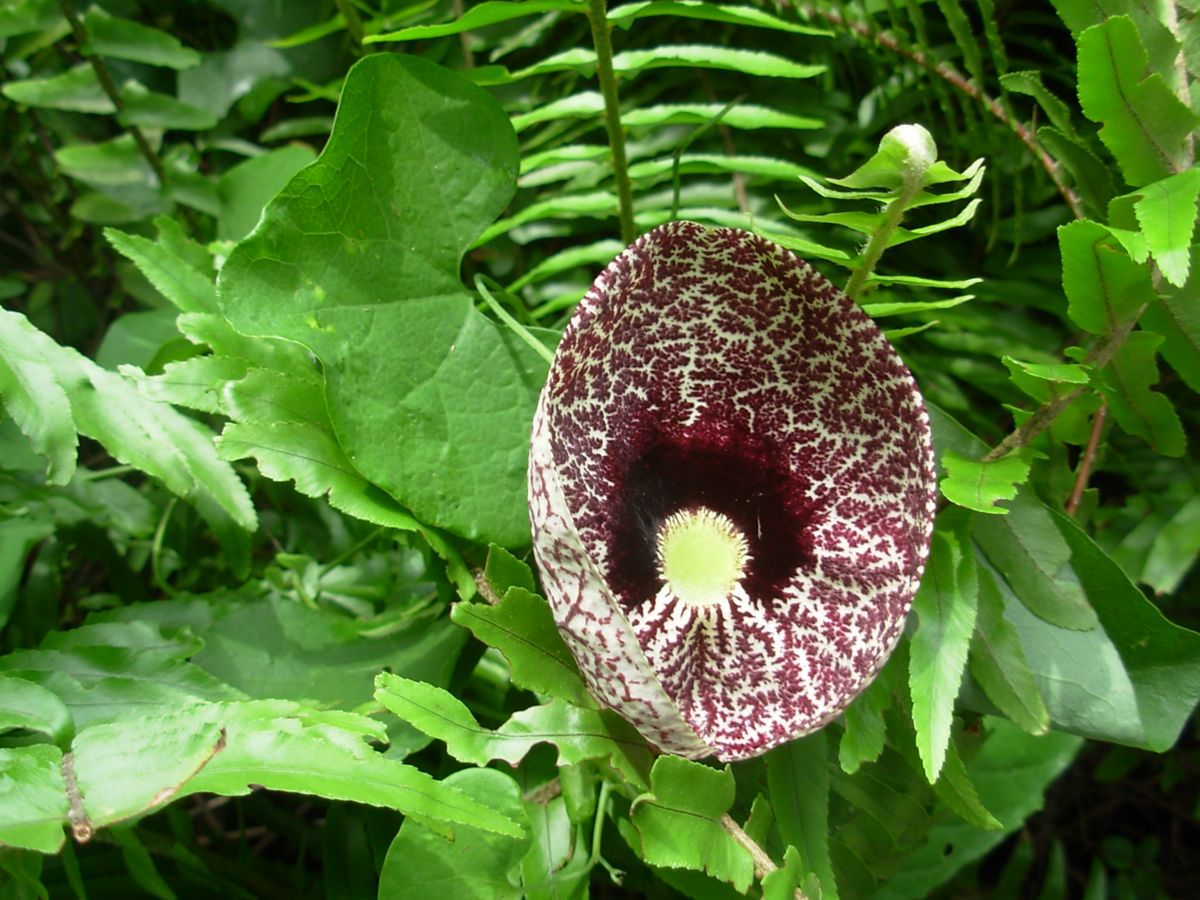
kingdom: Plantae
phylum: Tracheophyta
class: Magnoliopsida
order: Piperales
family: Aristolochiaceae
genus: Aristolochia
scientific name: Aristolochia littoralis
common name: Duck
